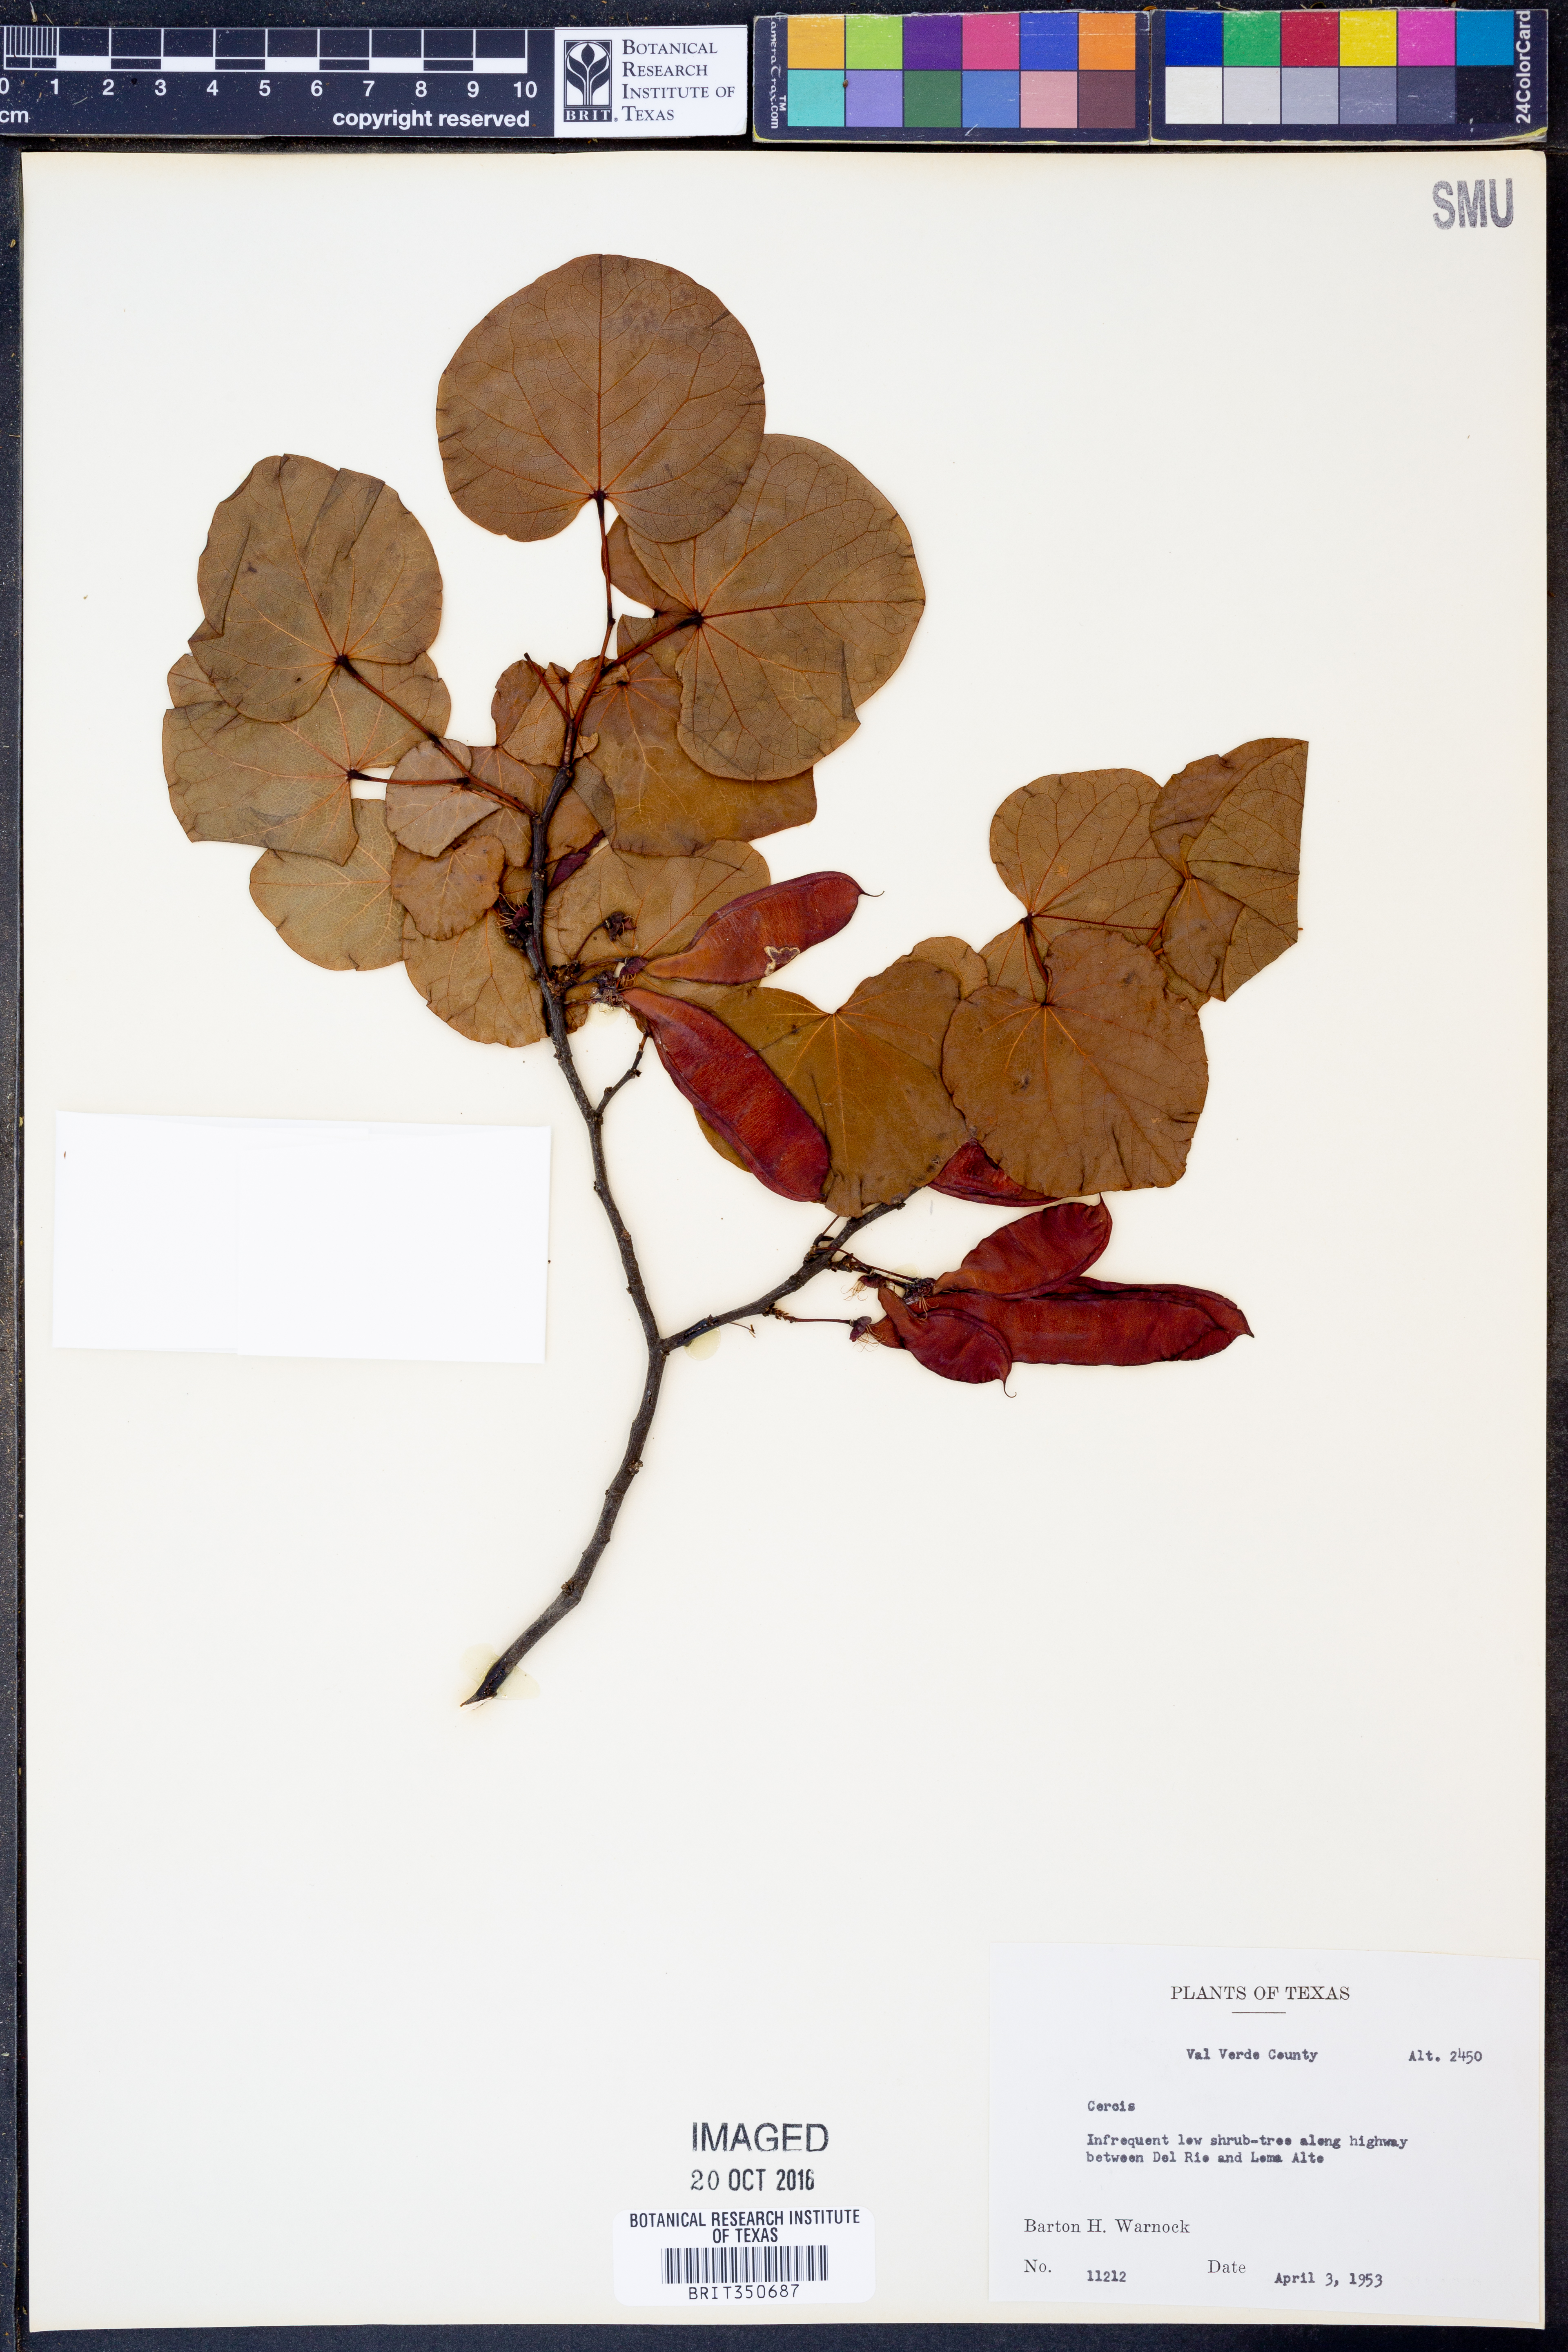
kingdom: Plantae
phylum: Tracheophyta
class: Magnoliopsida
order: Fabales
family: Fabaceae
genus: Cercis
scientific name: Cercis
